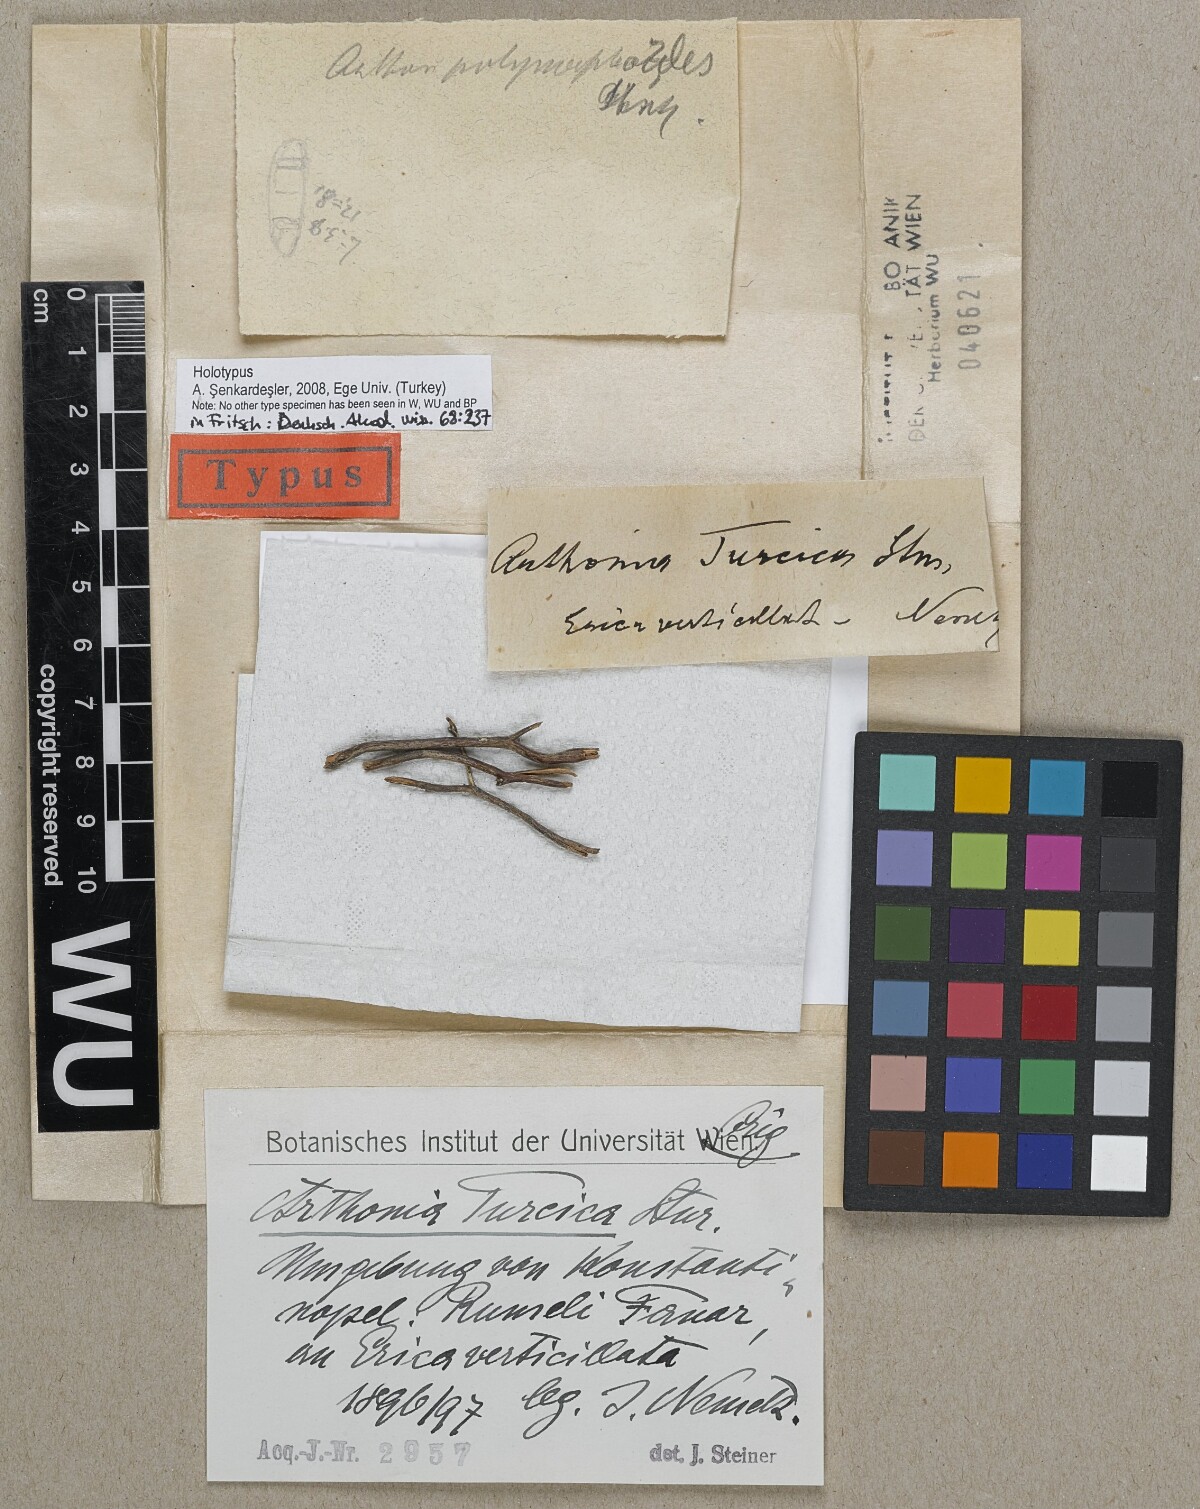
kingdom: Fungi
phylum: Ascomycota
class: Arthoniomycetes
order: Arthoniales
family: Arthoniaceae
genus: Arthonia
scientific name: Arthonia turgida
